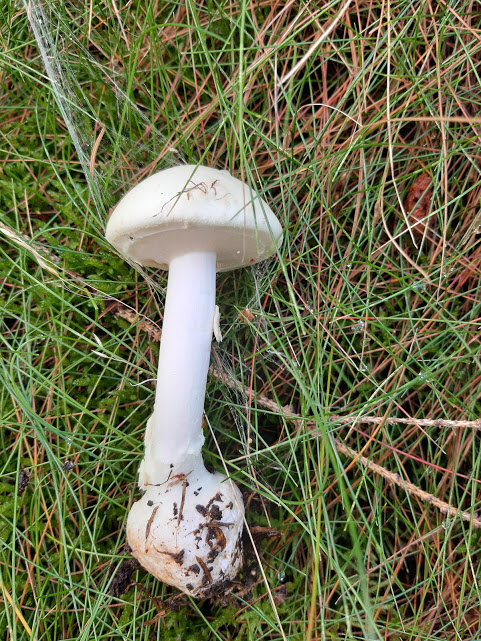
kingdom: Fungi
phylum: Basidiomycota
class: Agaricomycetes
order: Agaricales
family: Amanitaceae
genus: Amanita
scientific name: Amanita virosa
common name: snehvid fluesvamp
